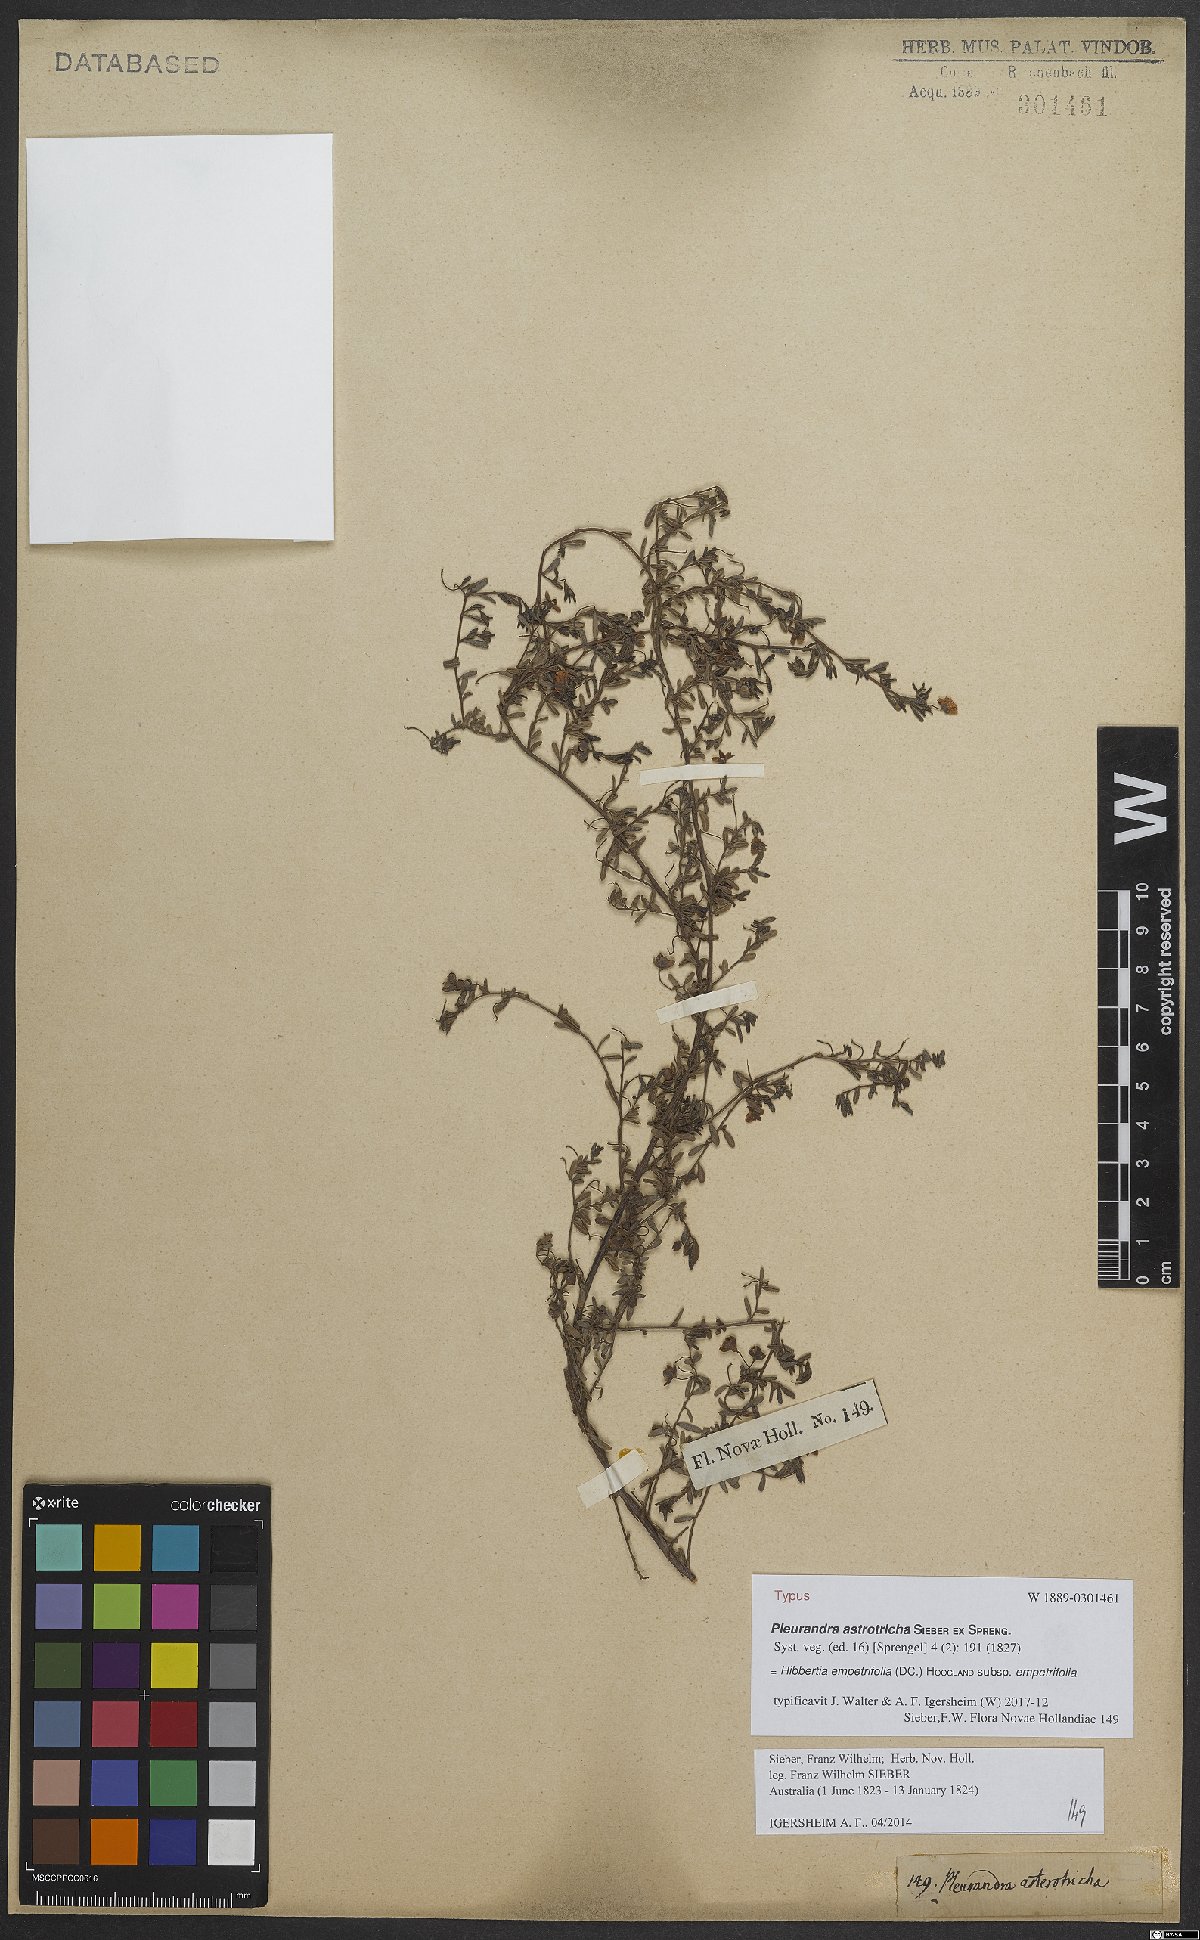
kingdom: Plantae
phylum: Tracheophyta
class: Magnoliopsida
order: Dilleniales
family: Dilleniaceae
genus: Hibbertia
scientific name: Hibbertia empetrifolia
